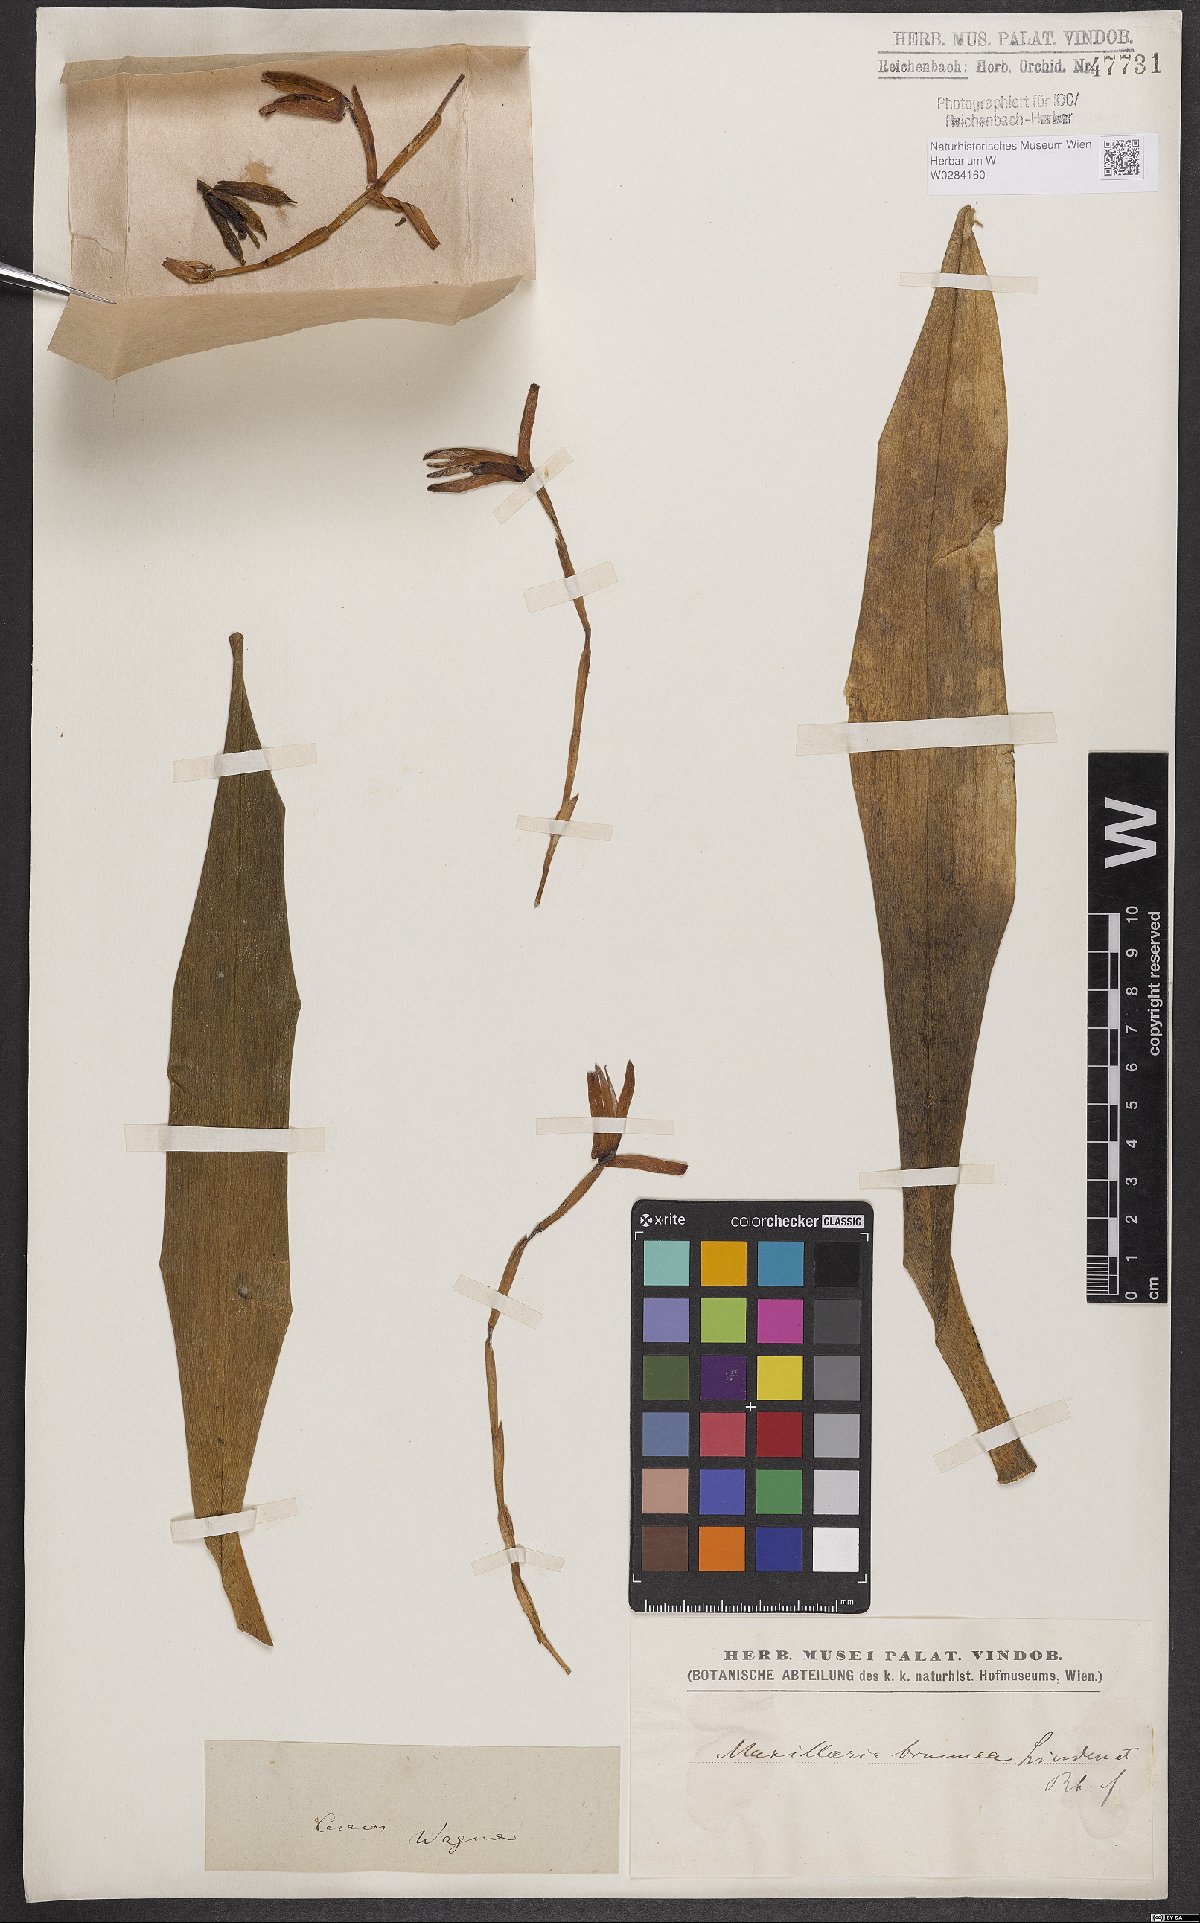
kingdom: Plantae
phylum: Tracheophyta
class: Liliopsida
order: Asparagales
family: Orchidaceae
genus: Maxillaria
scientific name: Maxillaria porrecta
